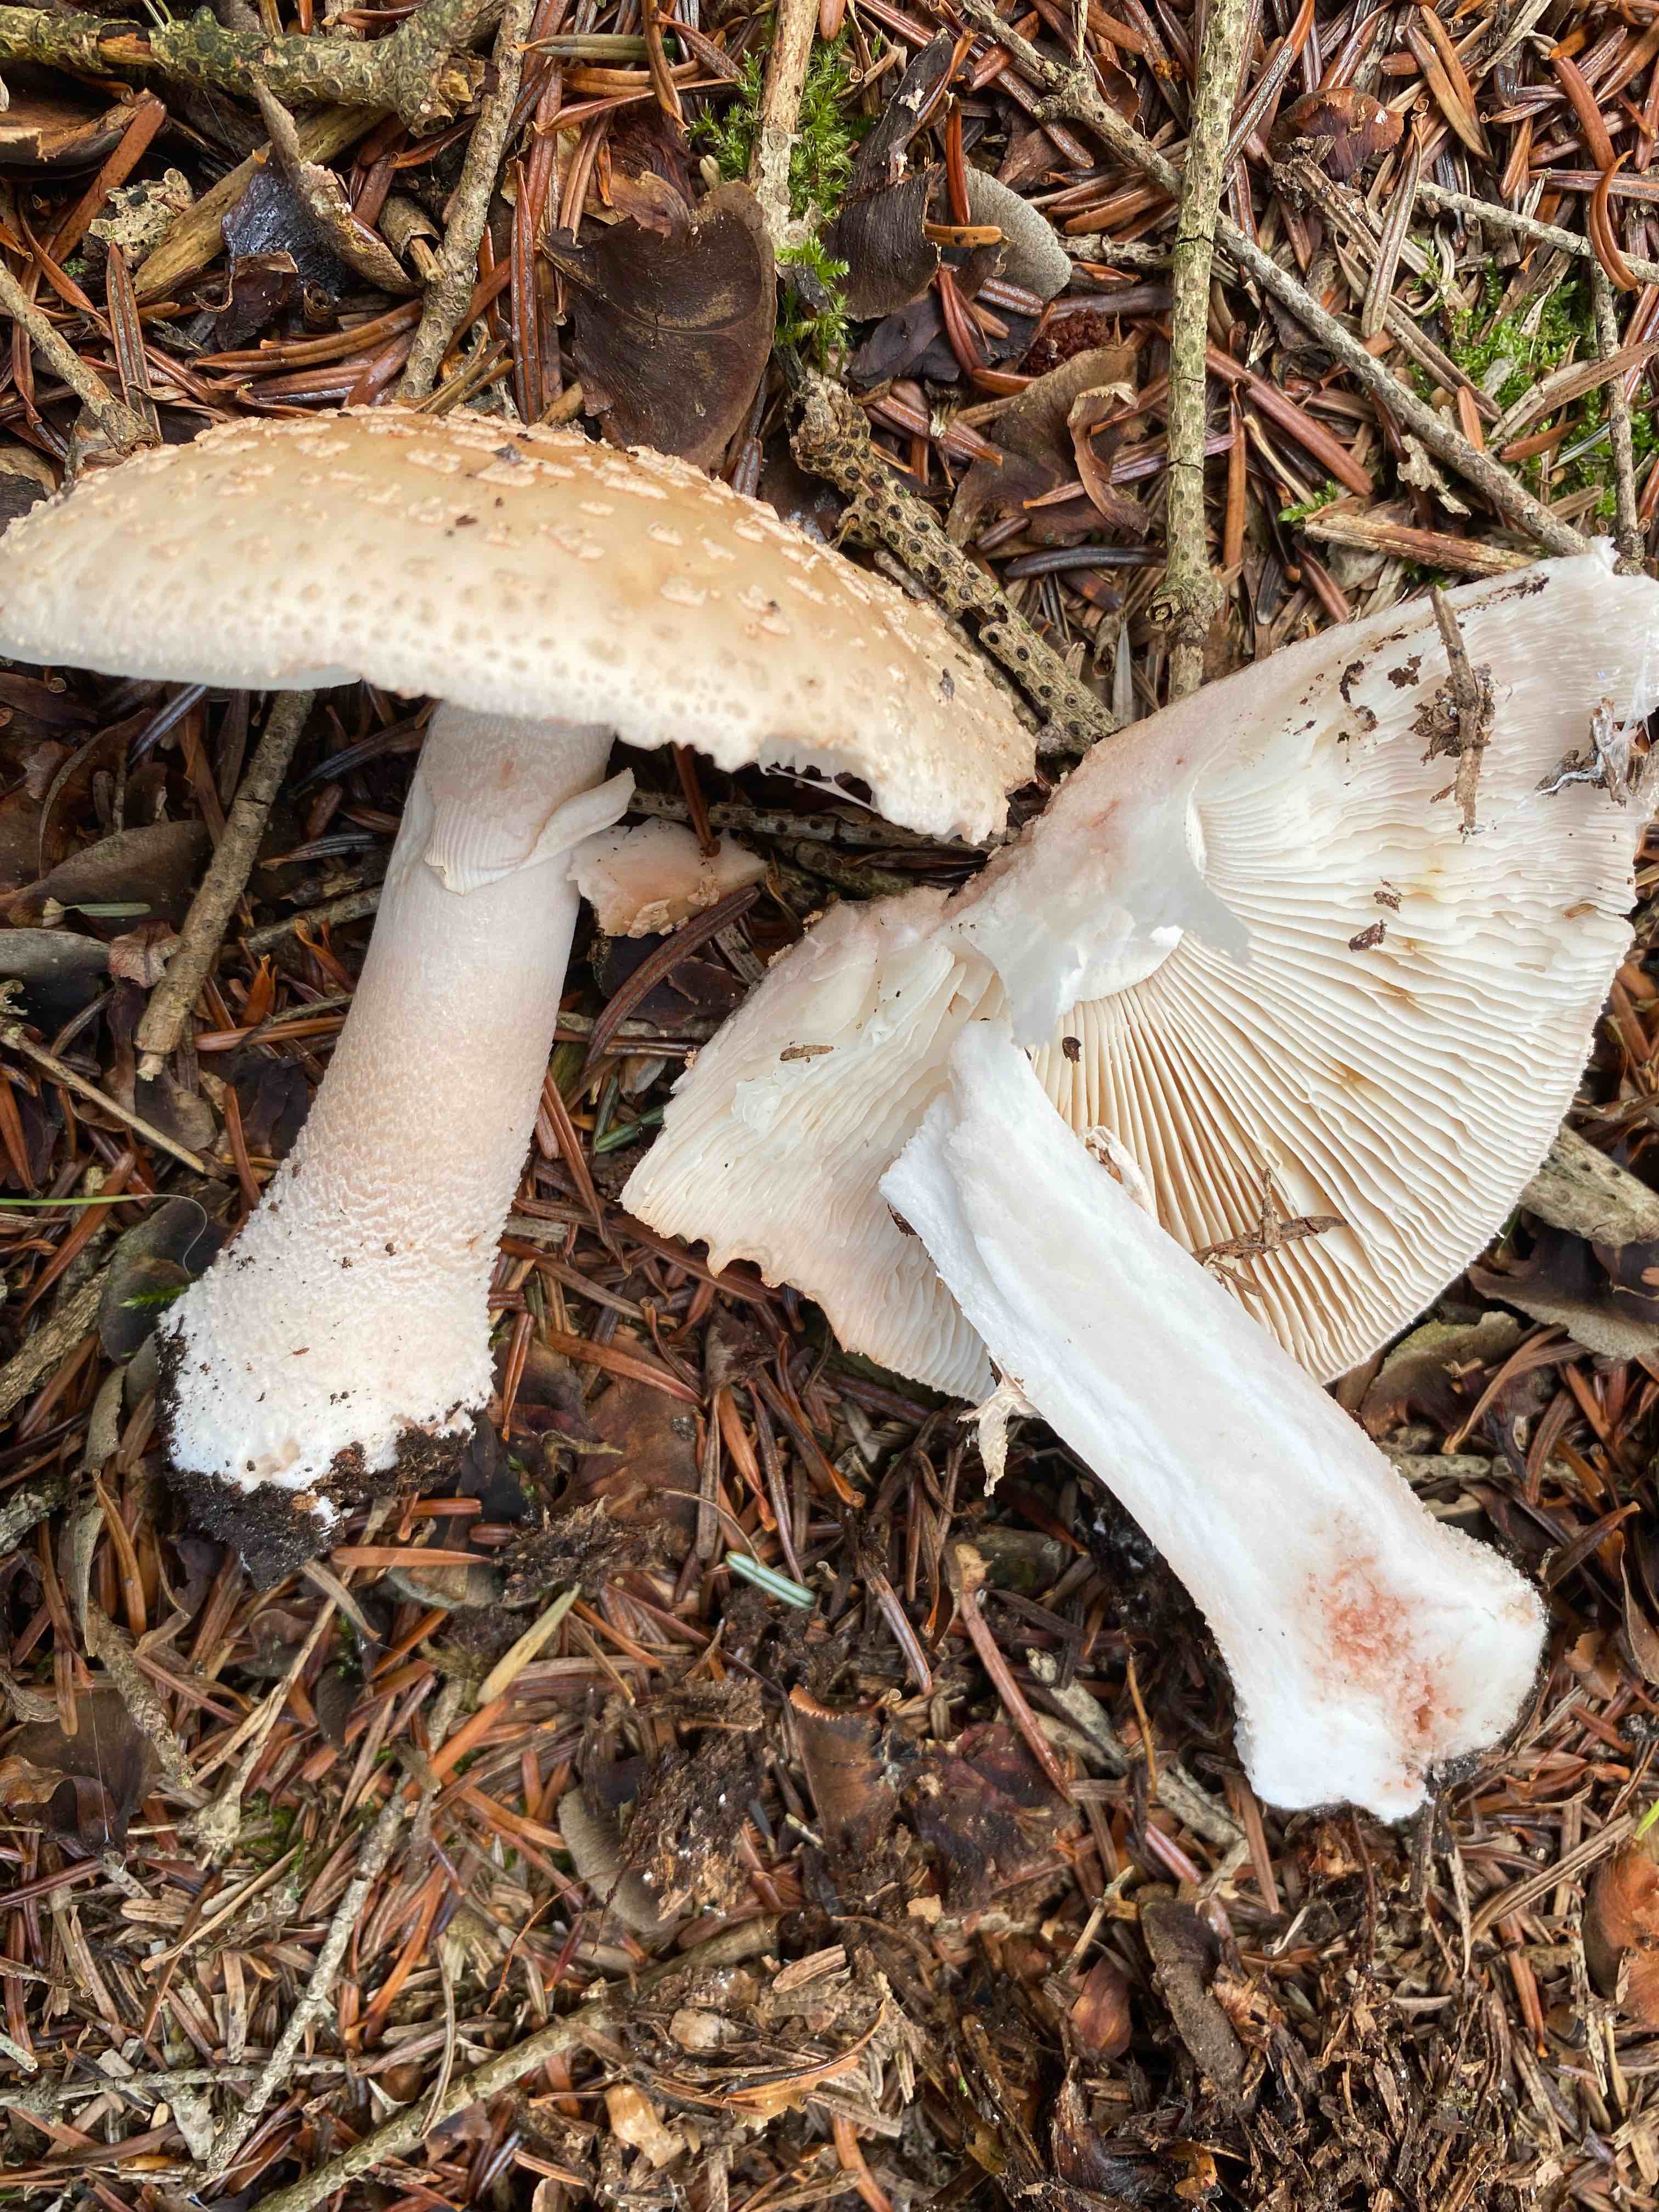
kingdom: Fungi
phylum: Basidiomycota
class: Agaricomycetes
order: Agaricales
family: Amanitaceae
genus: Amanita
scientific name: Amanita rubescens
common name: rødmende fluesvamp
